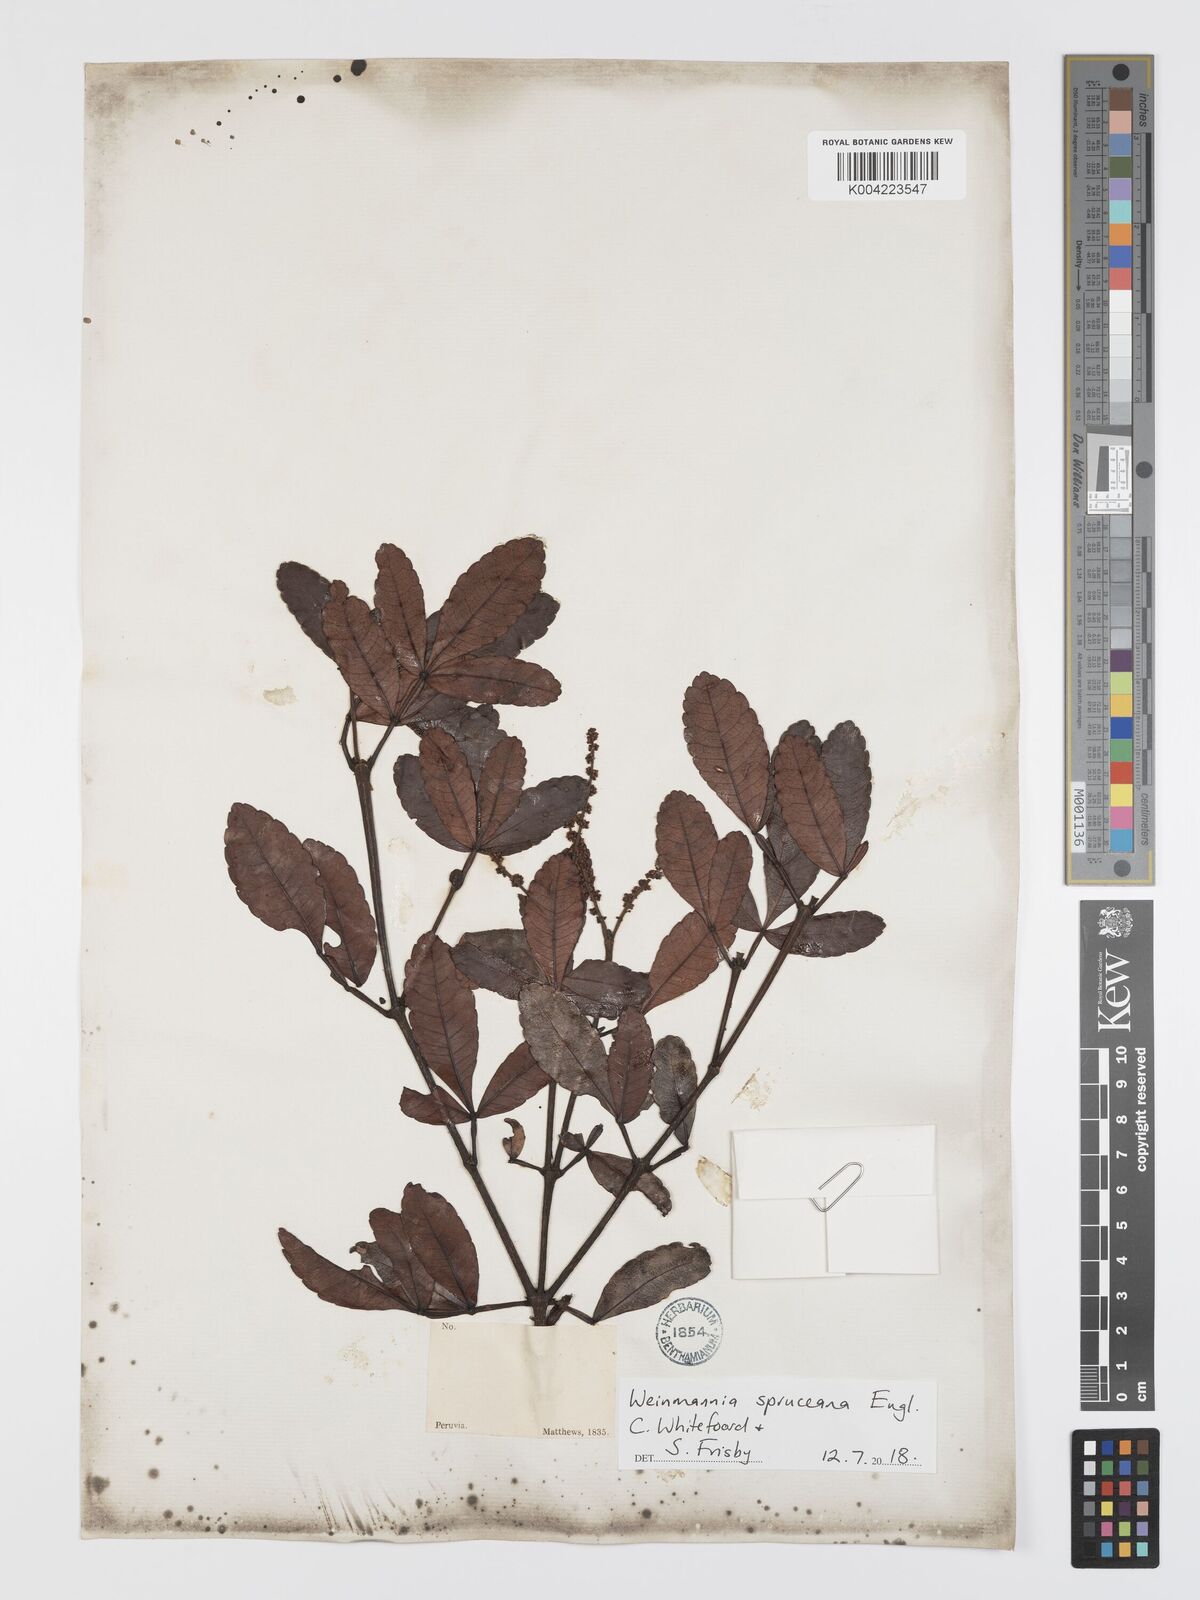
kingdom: Plantae
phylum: Tracheophyta
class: Magnoliopsida
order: Oxalidales
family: Cunoniaceae
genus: Weinmannia
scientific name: Weinmannia spruceana
